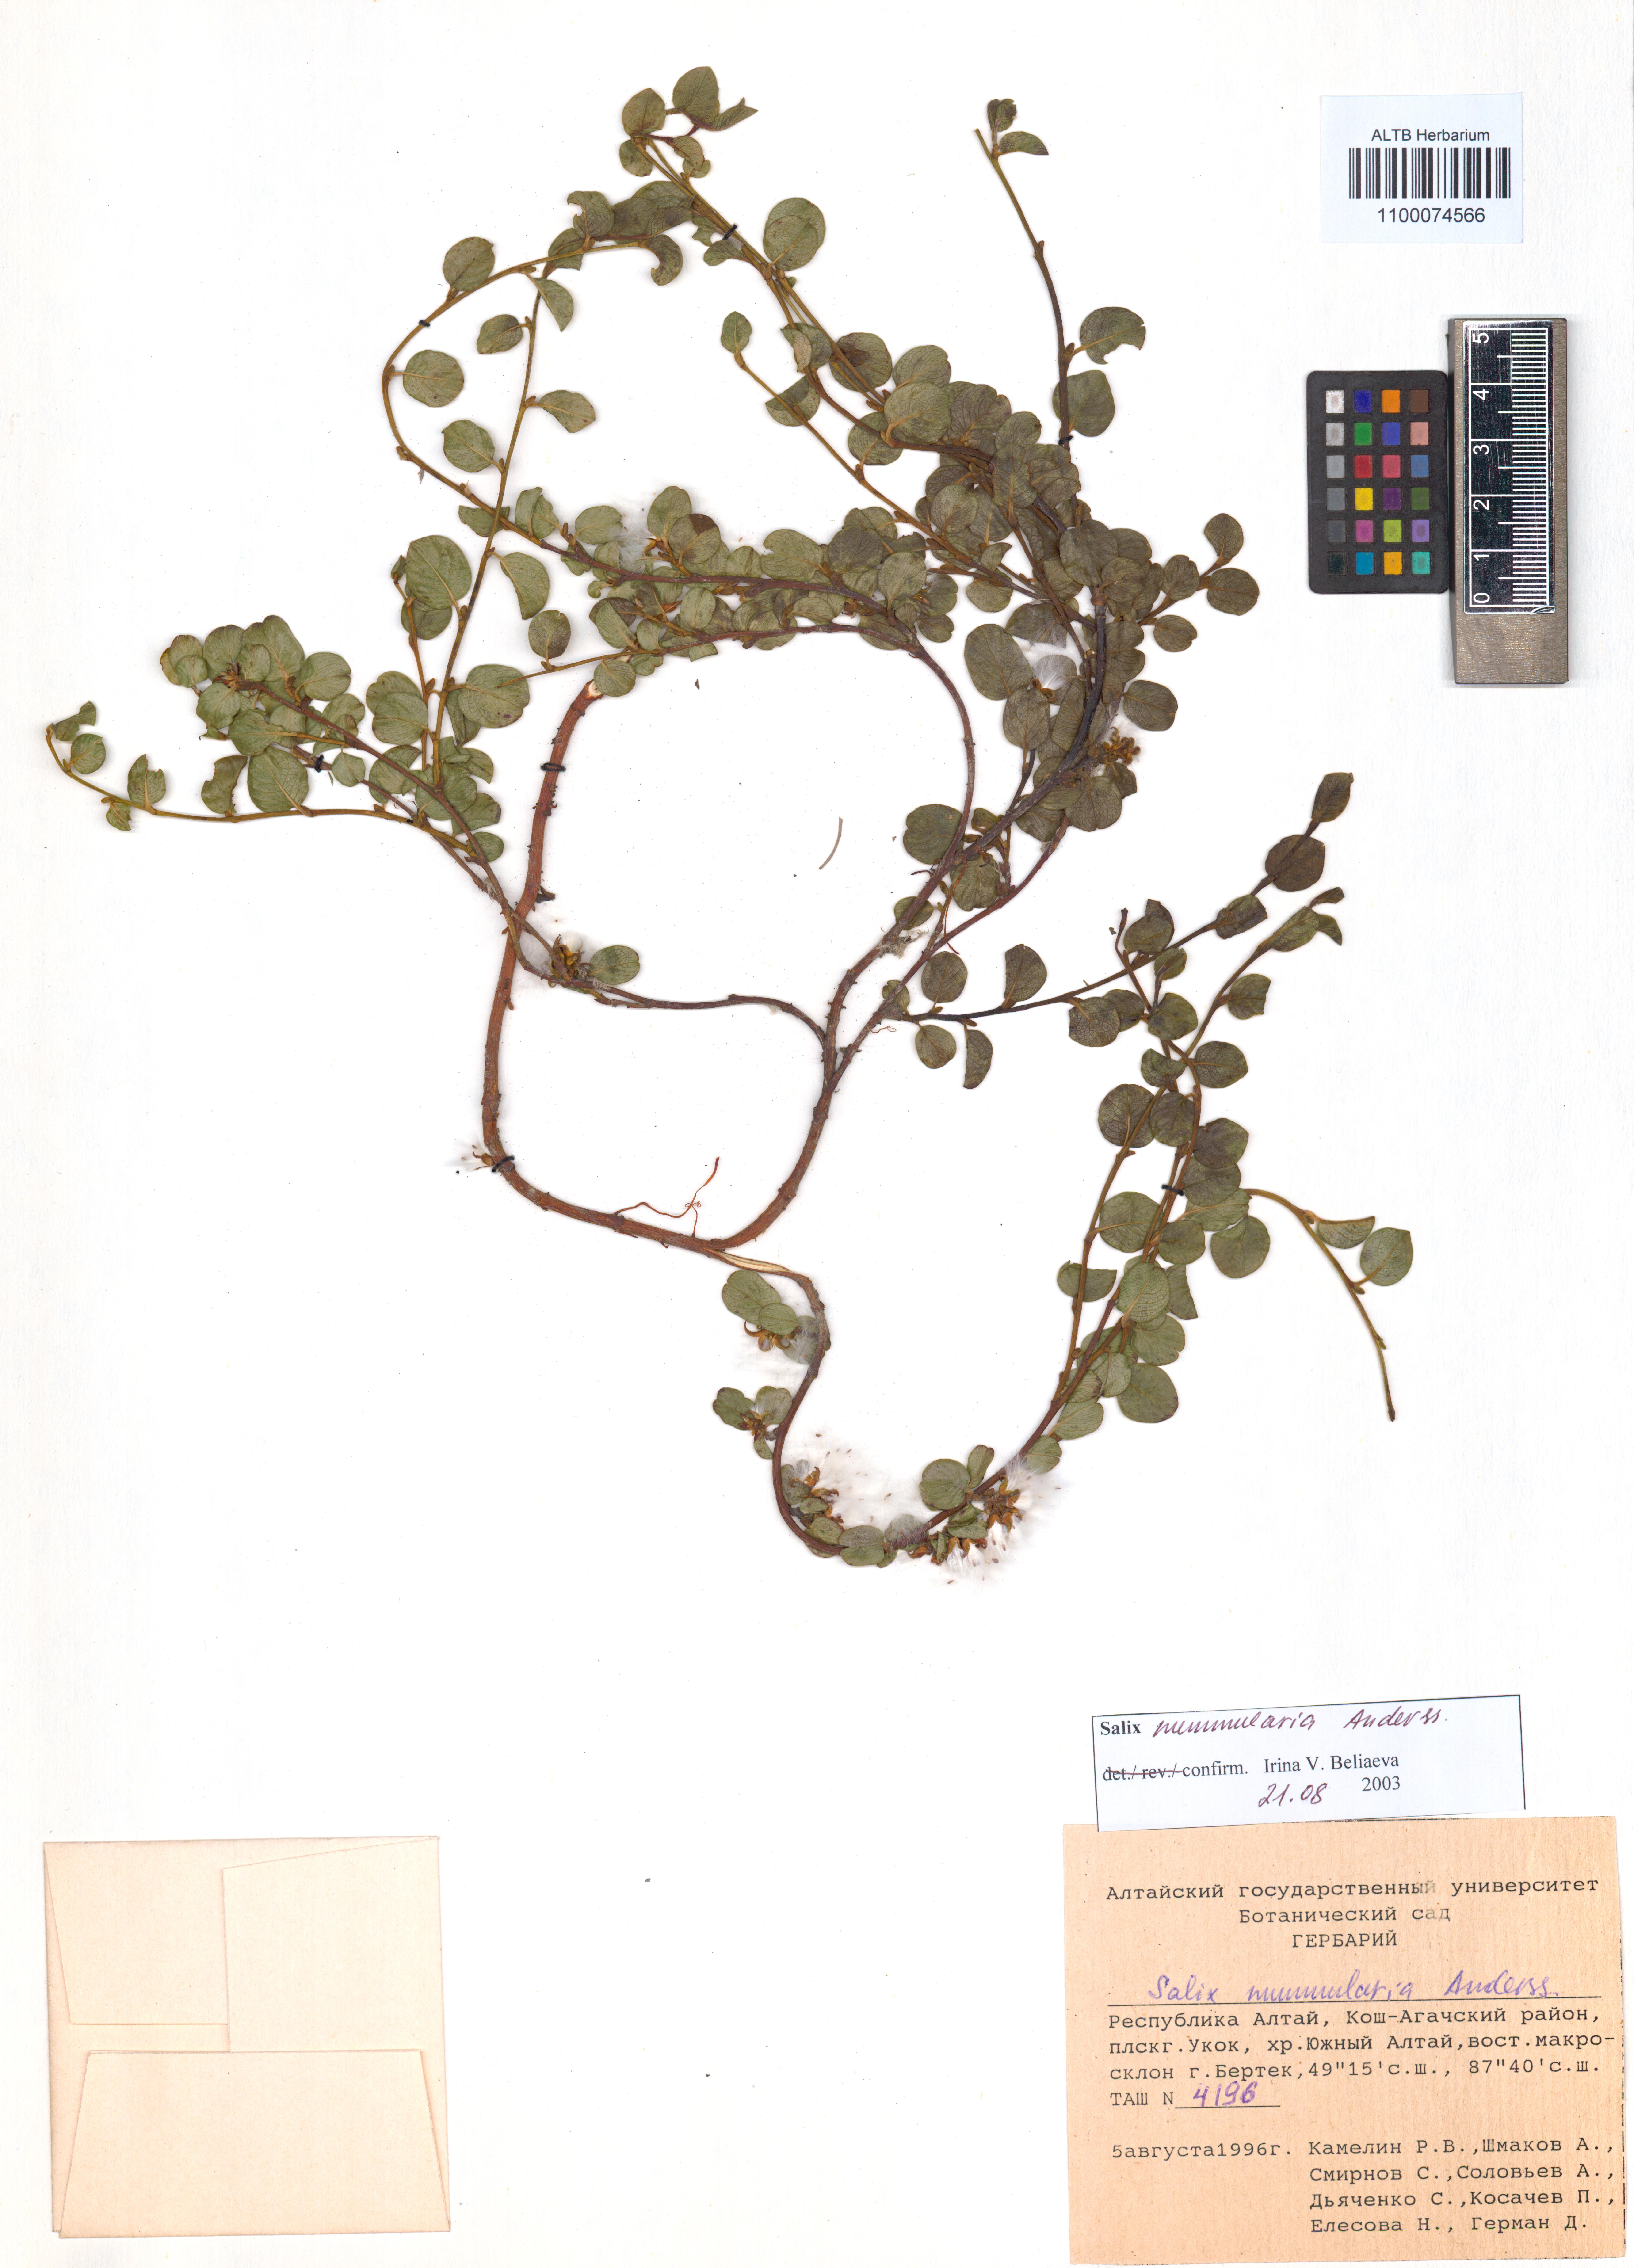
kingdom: Plantae
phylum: Tracheophyta
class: Magnoliopsida
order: Malpighiales
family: Salicaceae
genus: Salix
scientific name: Salix nummularia
